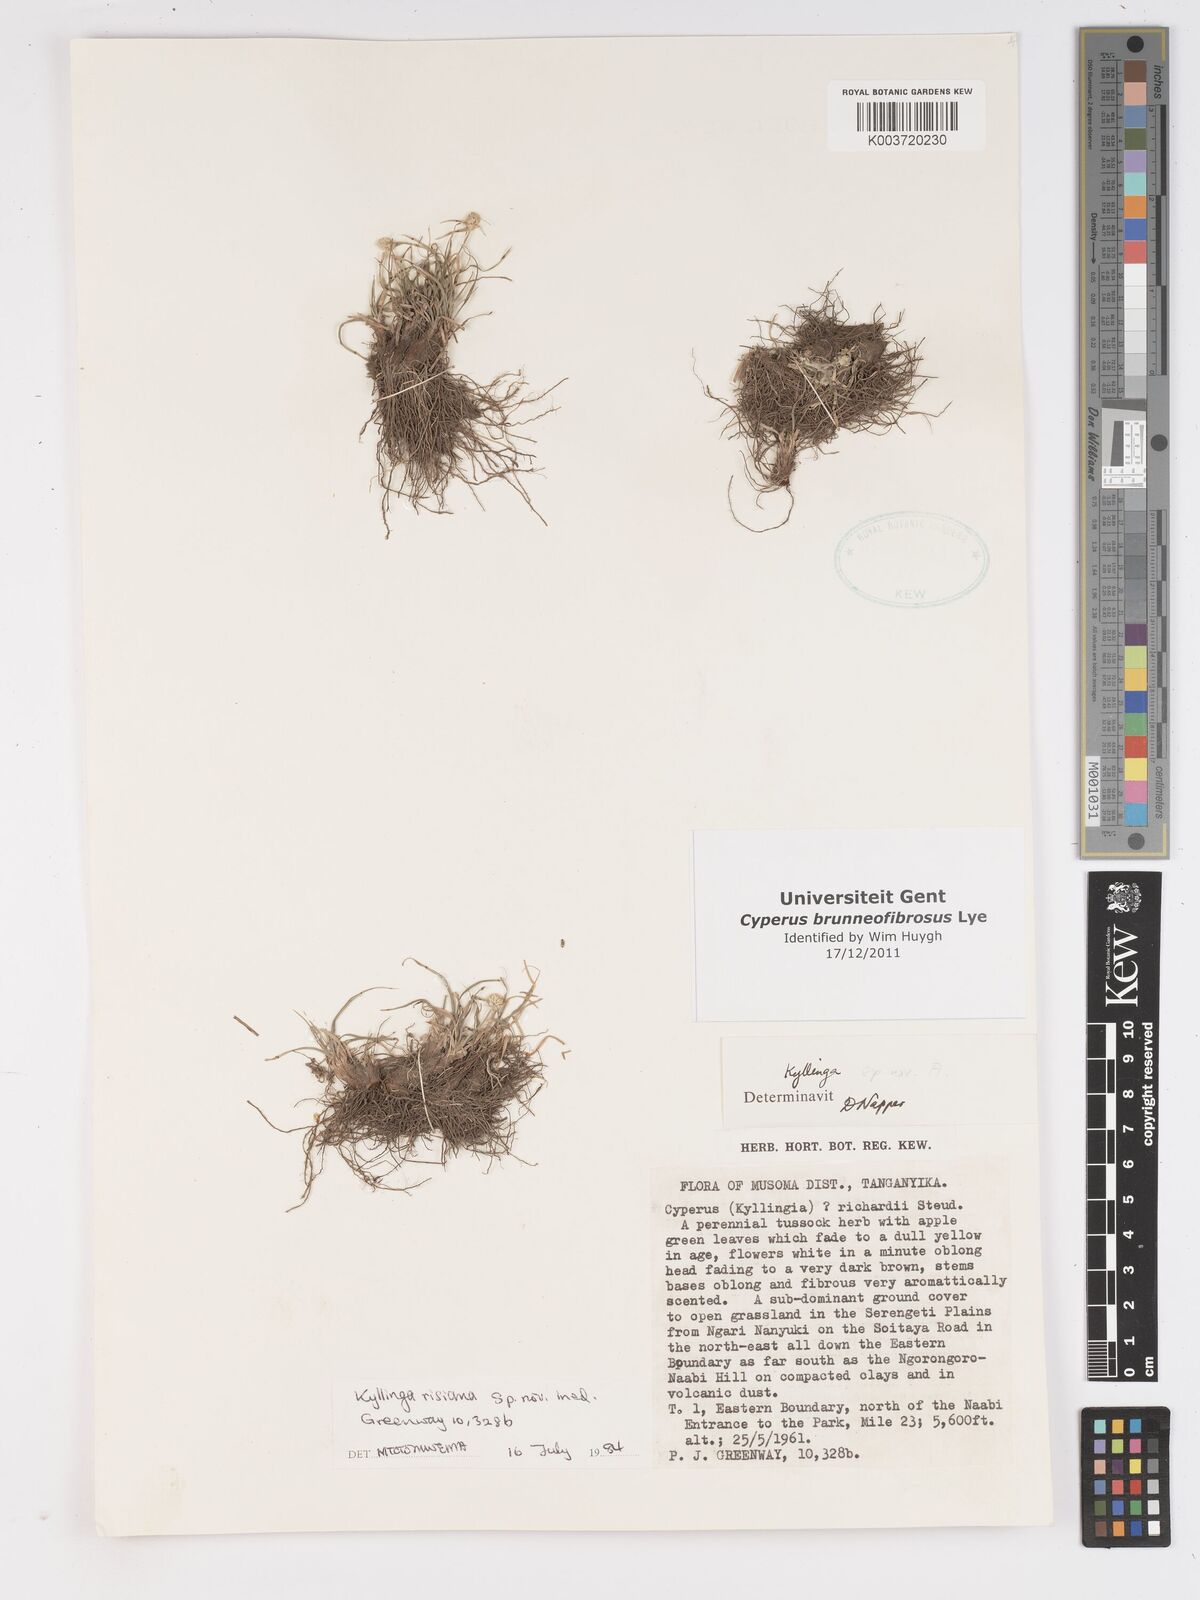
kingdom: Plantae
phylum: Tracheophyta
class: Liliopsida
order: Poales
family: Cyperaceae
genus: Cyperus
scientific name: Cyperus brunneofibrosus
